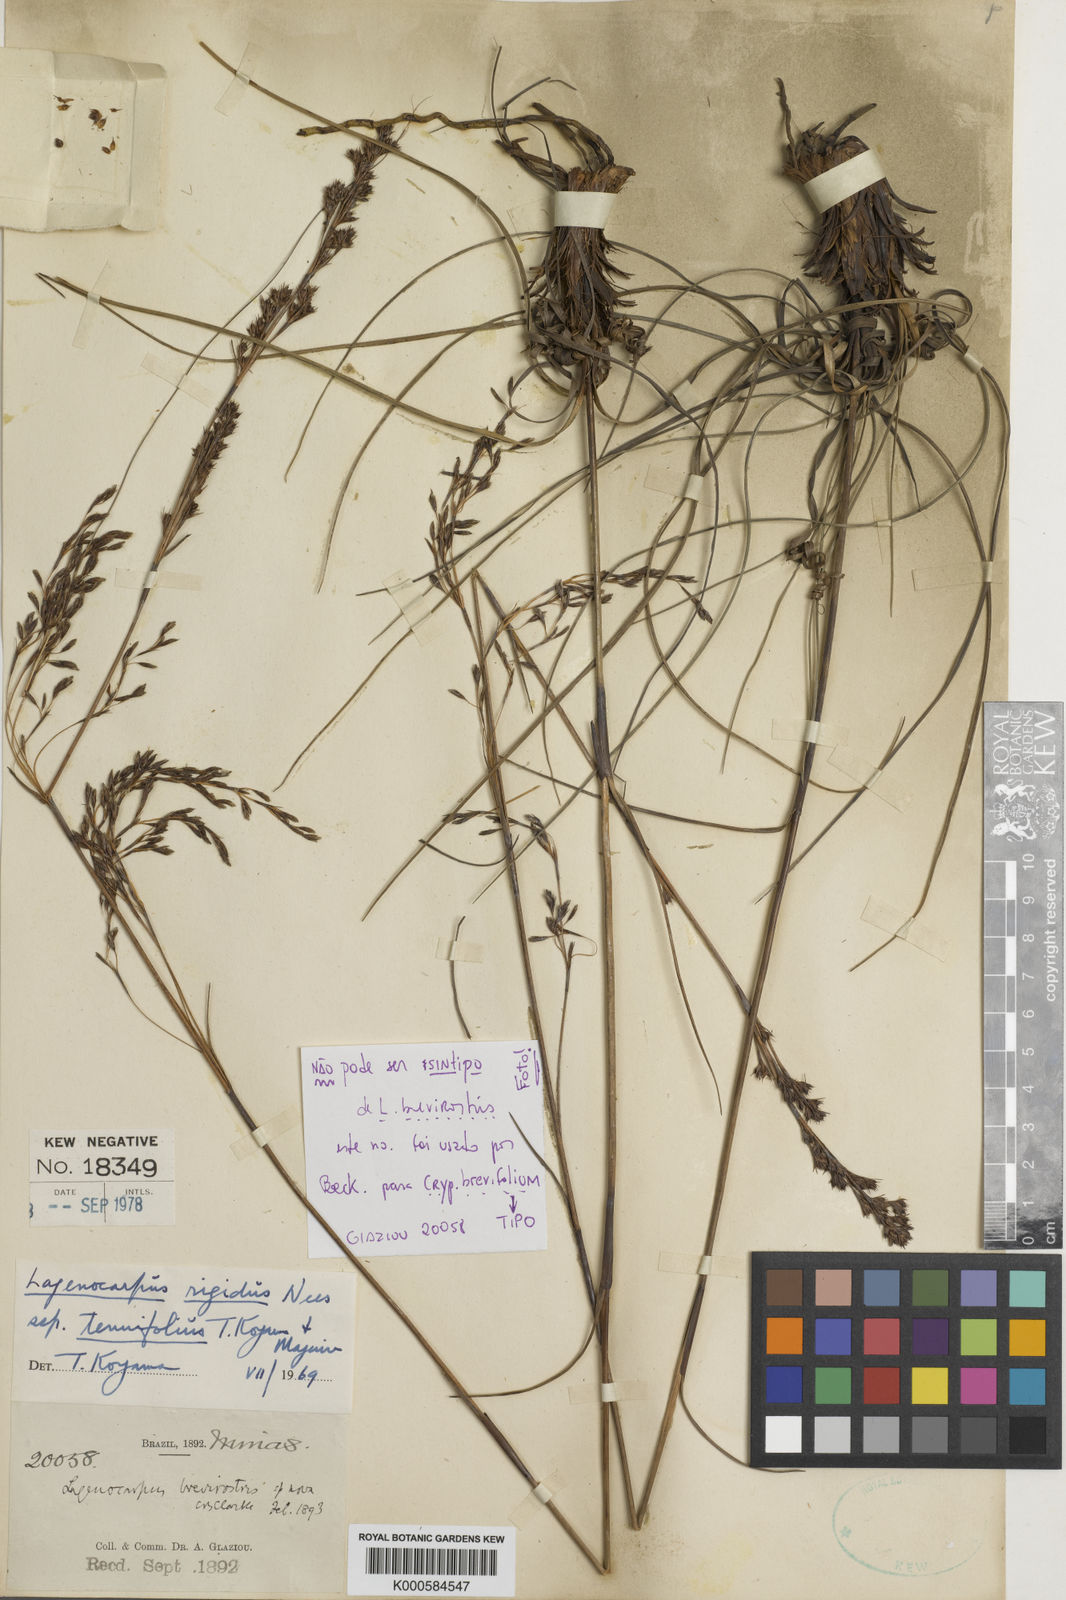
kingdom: Plantae
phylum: Tracheophyta
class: Liliopsida
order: Poales
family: Cyperaceae
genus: Lagenocarpus
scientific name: Lagenocarpus rigidus
